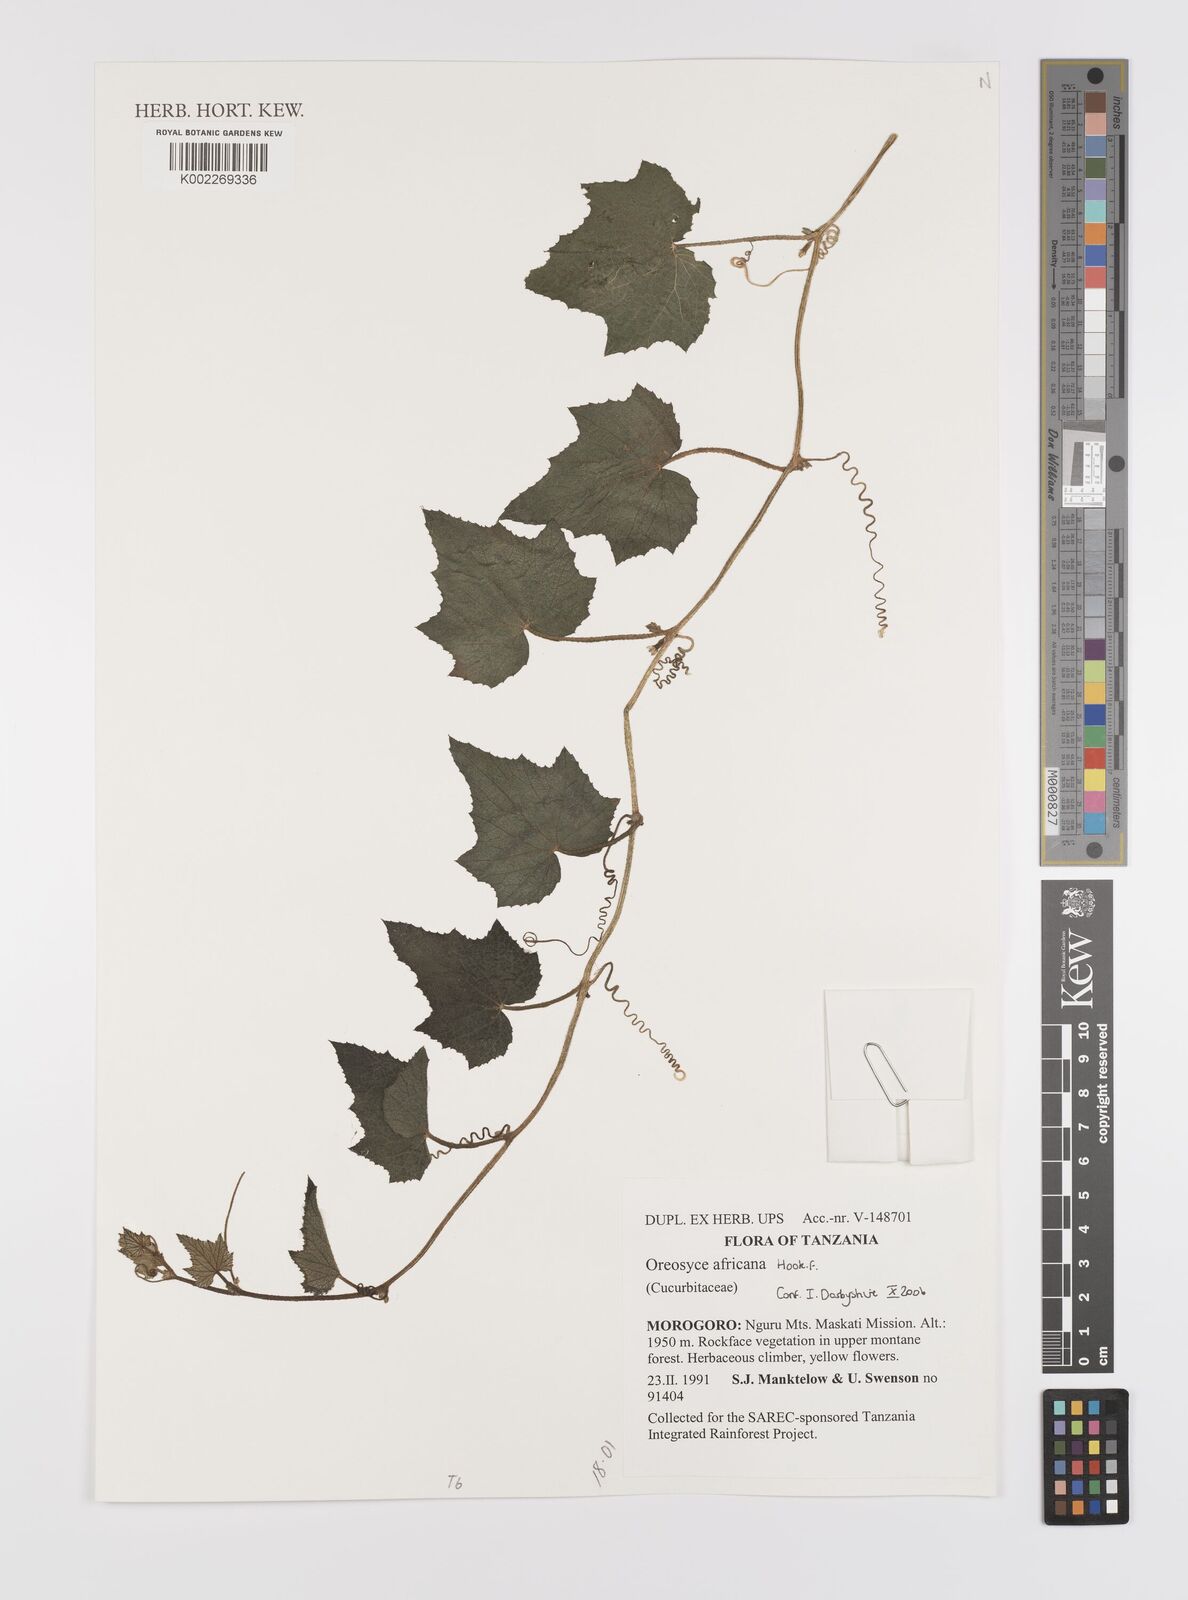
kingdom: Plantae
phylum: Tracheophyta
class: Magnoliopsida
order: Cucurbitales
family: Cucurbitaceae
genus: Cucumis
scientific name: Cucumis oreosyce
